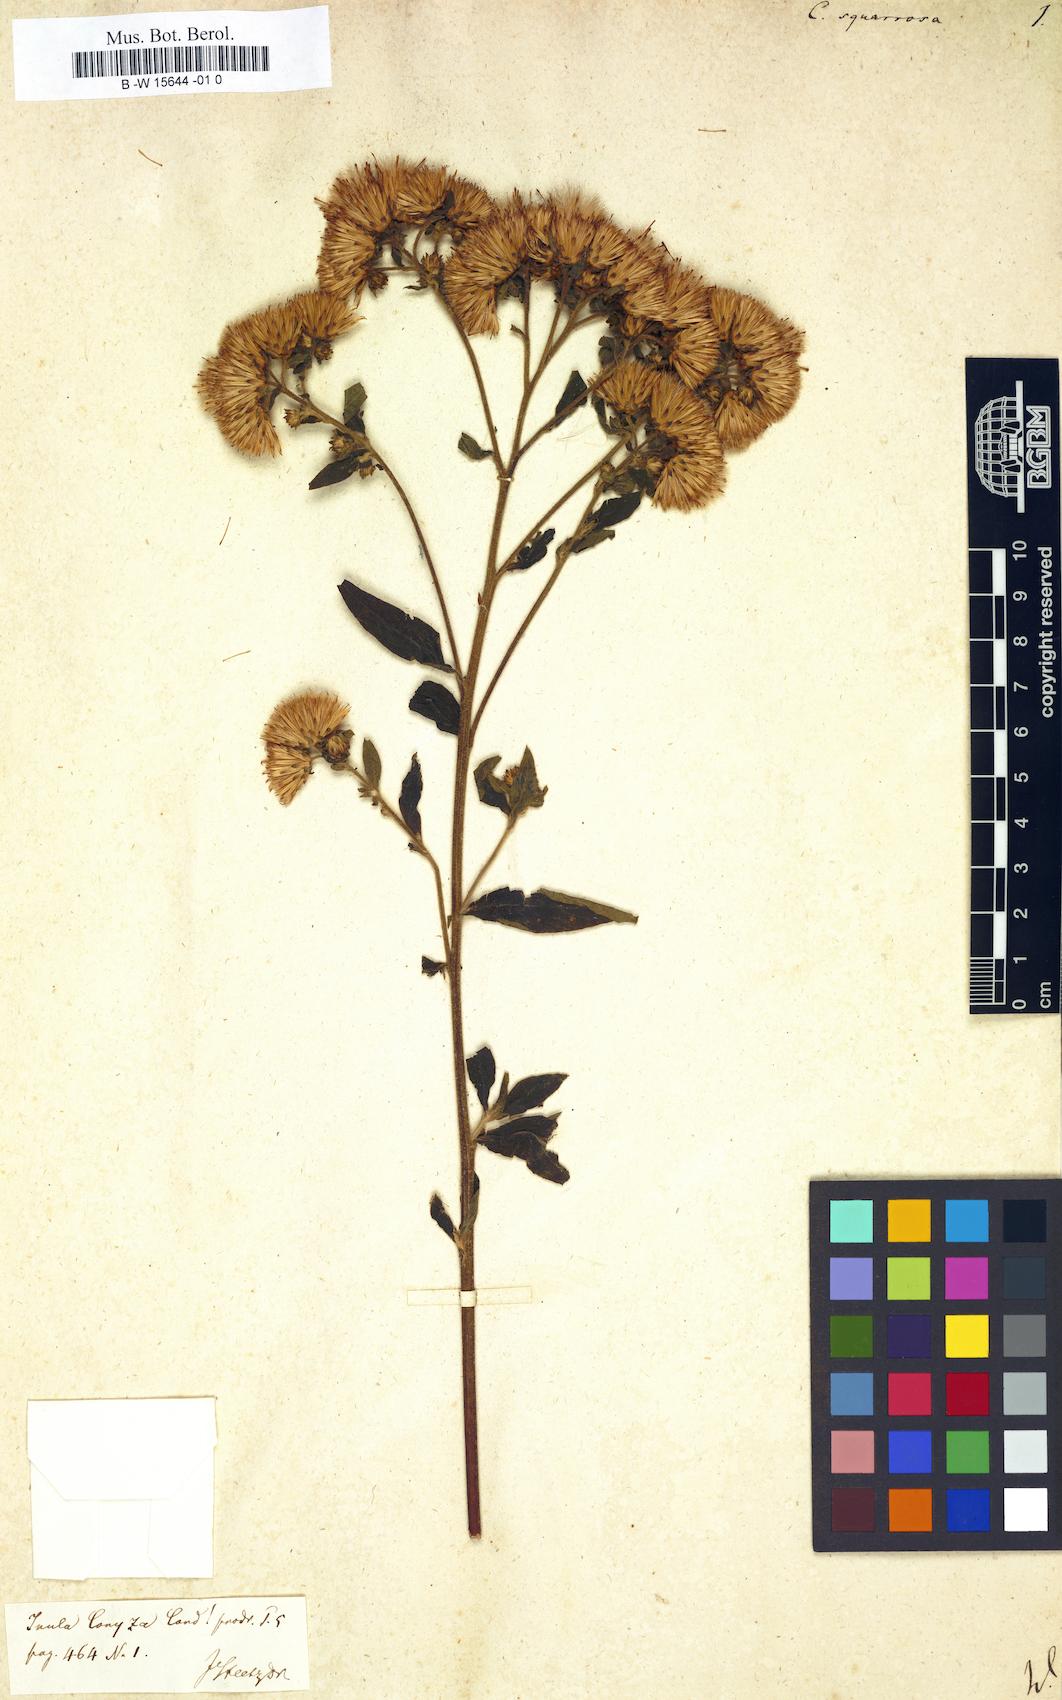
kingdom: Plantae
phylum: Tracheophyta
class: Magnoliopsida
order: Asterales
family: Asteraceae
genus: Conyza
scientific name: Conyza squarrosa
